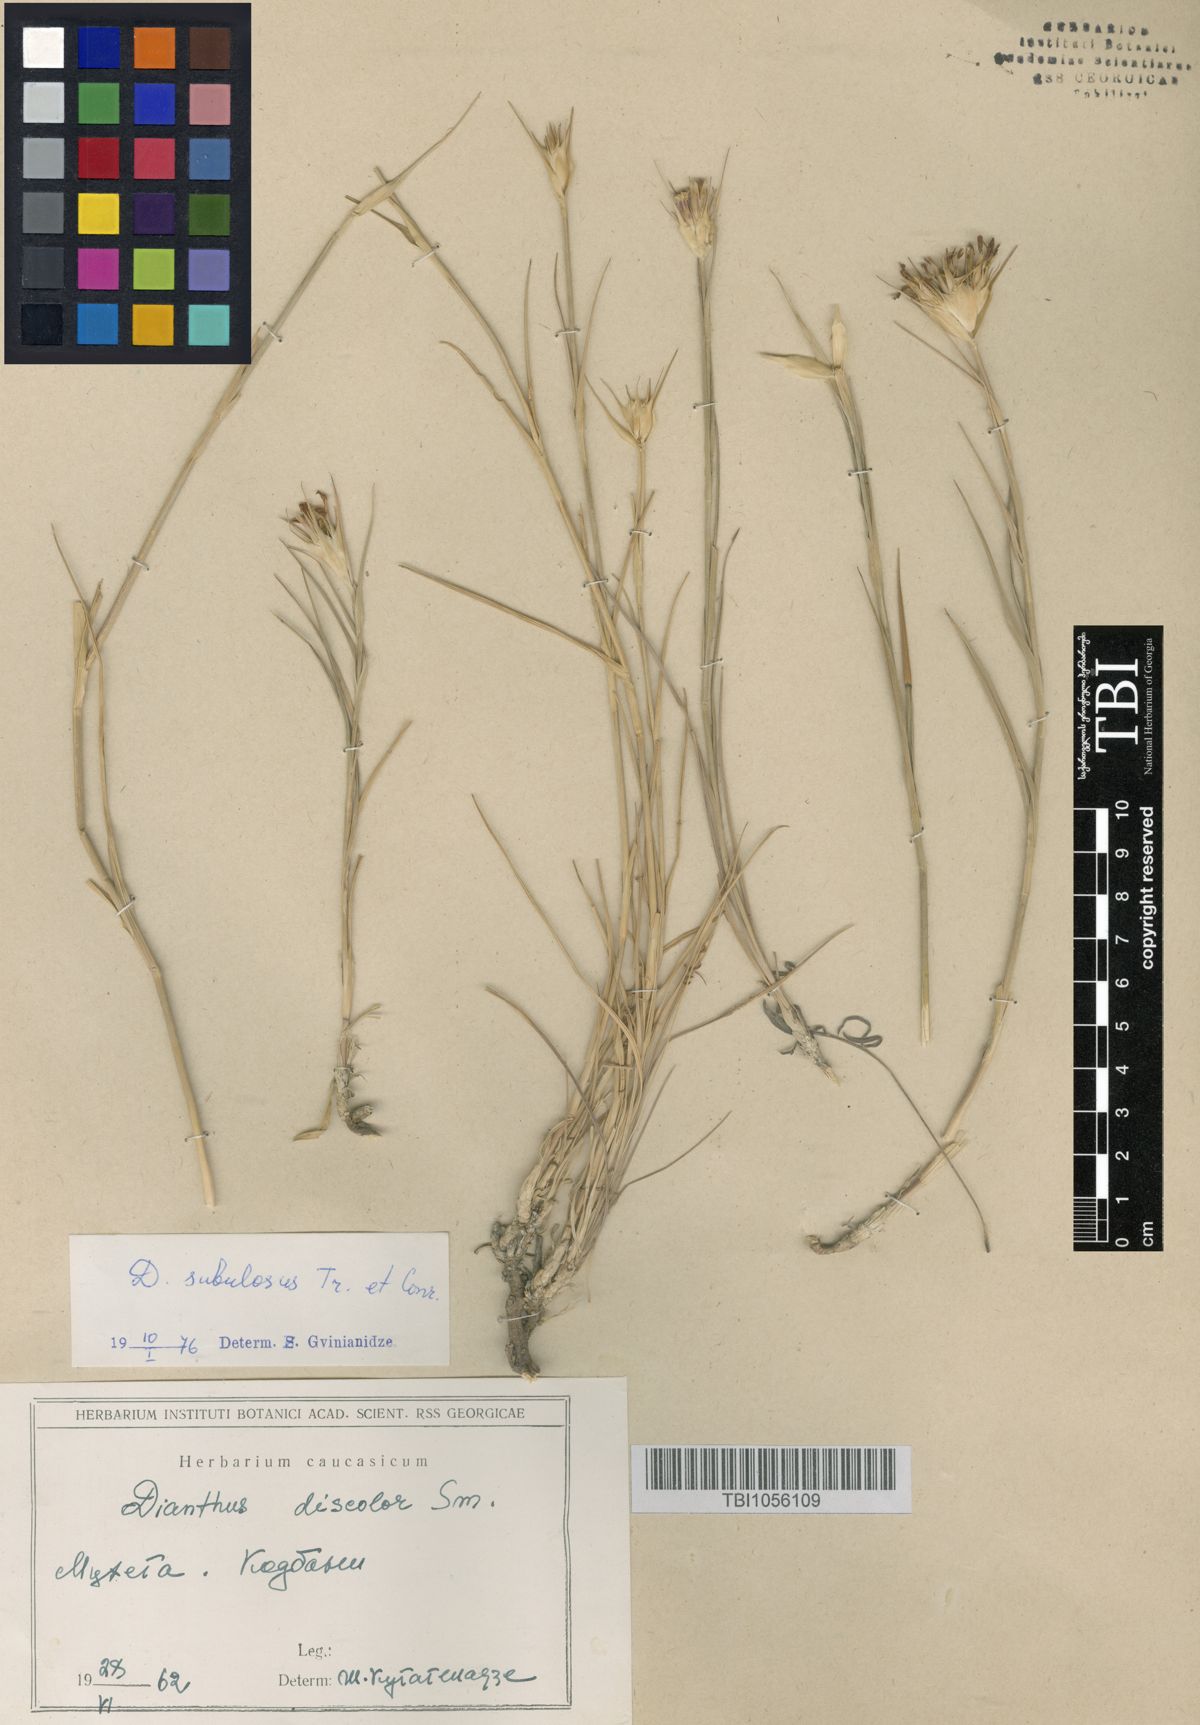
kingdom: Plantae
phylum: Tracheophyta
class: Magnoliopsida
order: Caryophyllales
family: Caryophyllaceae
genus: Dianthus
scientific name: Dianthus subulosus
